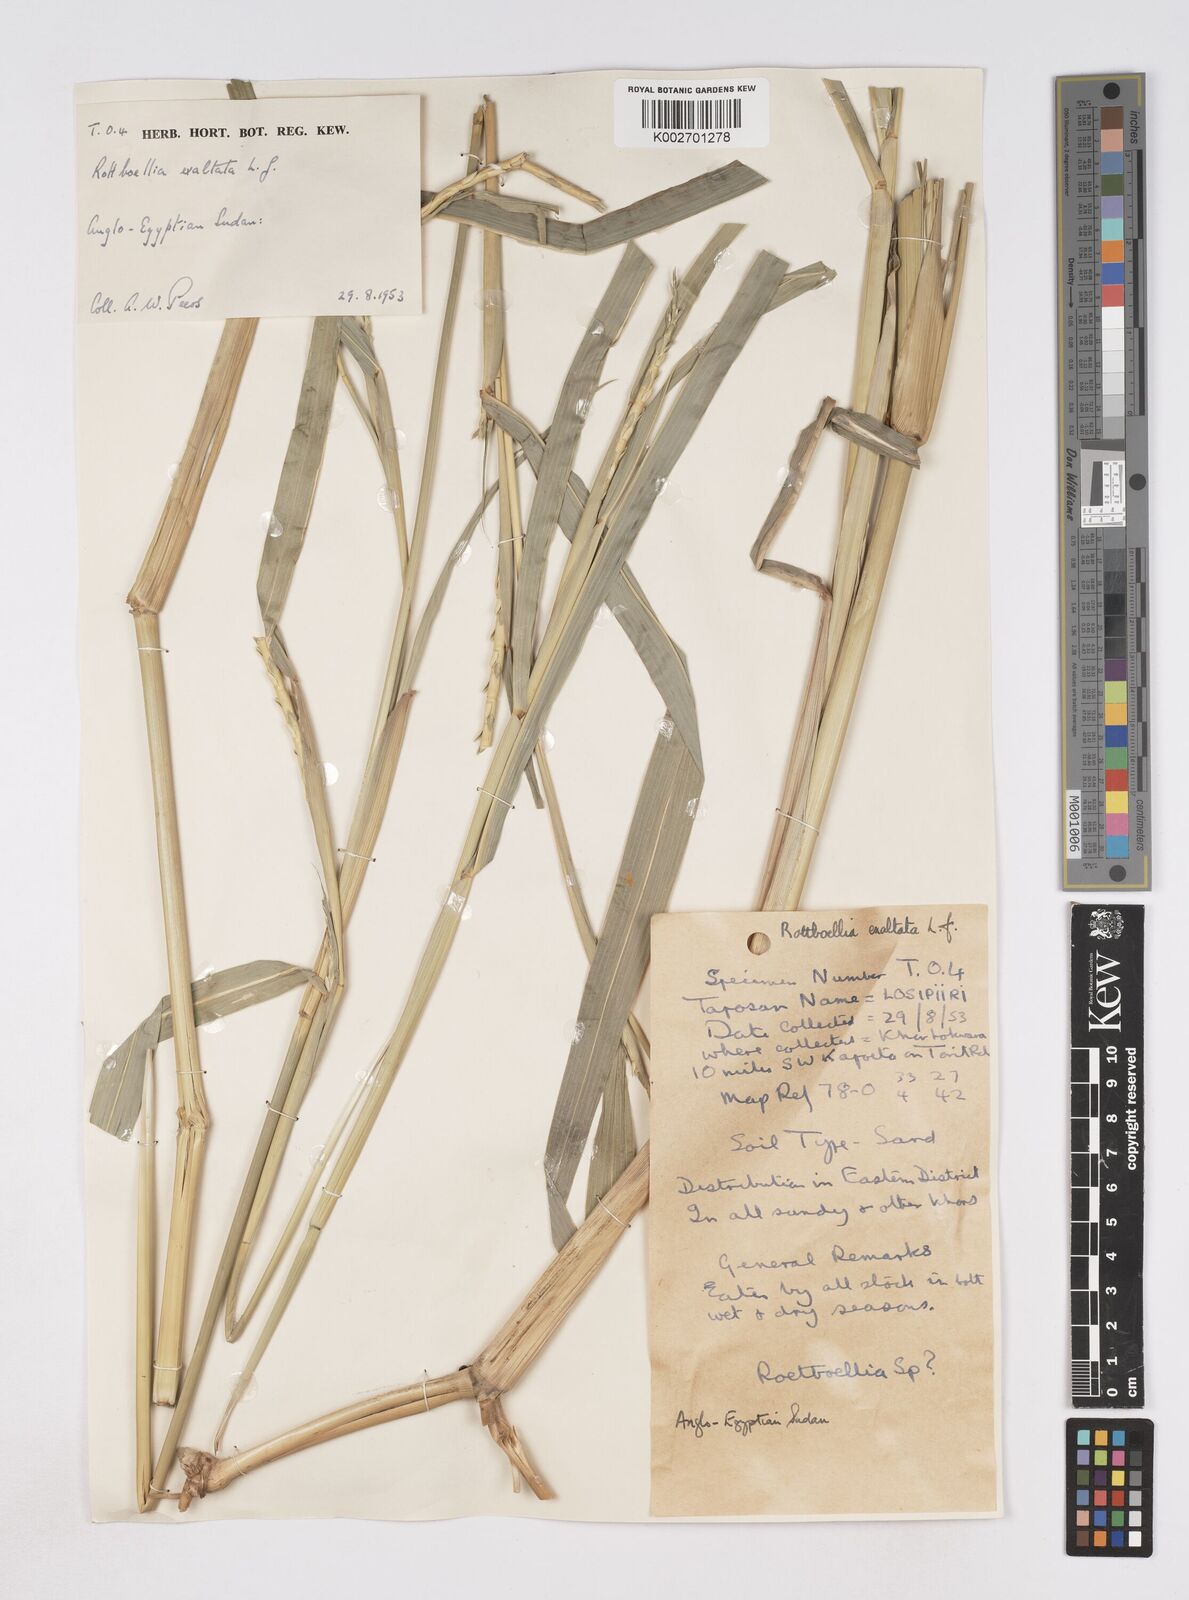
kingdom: Plantae
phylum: Tracheophyta
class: Liliopsida
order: Poales
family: Poaceae
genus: Rottboellia
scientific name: Rottboellia cochinchinensis
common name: Itchgrass
